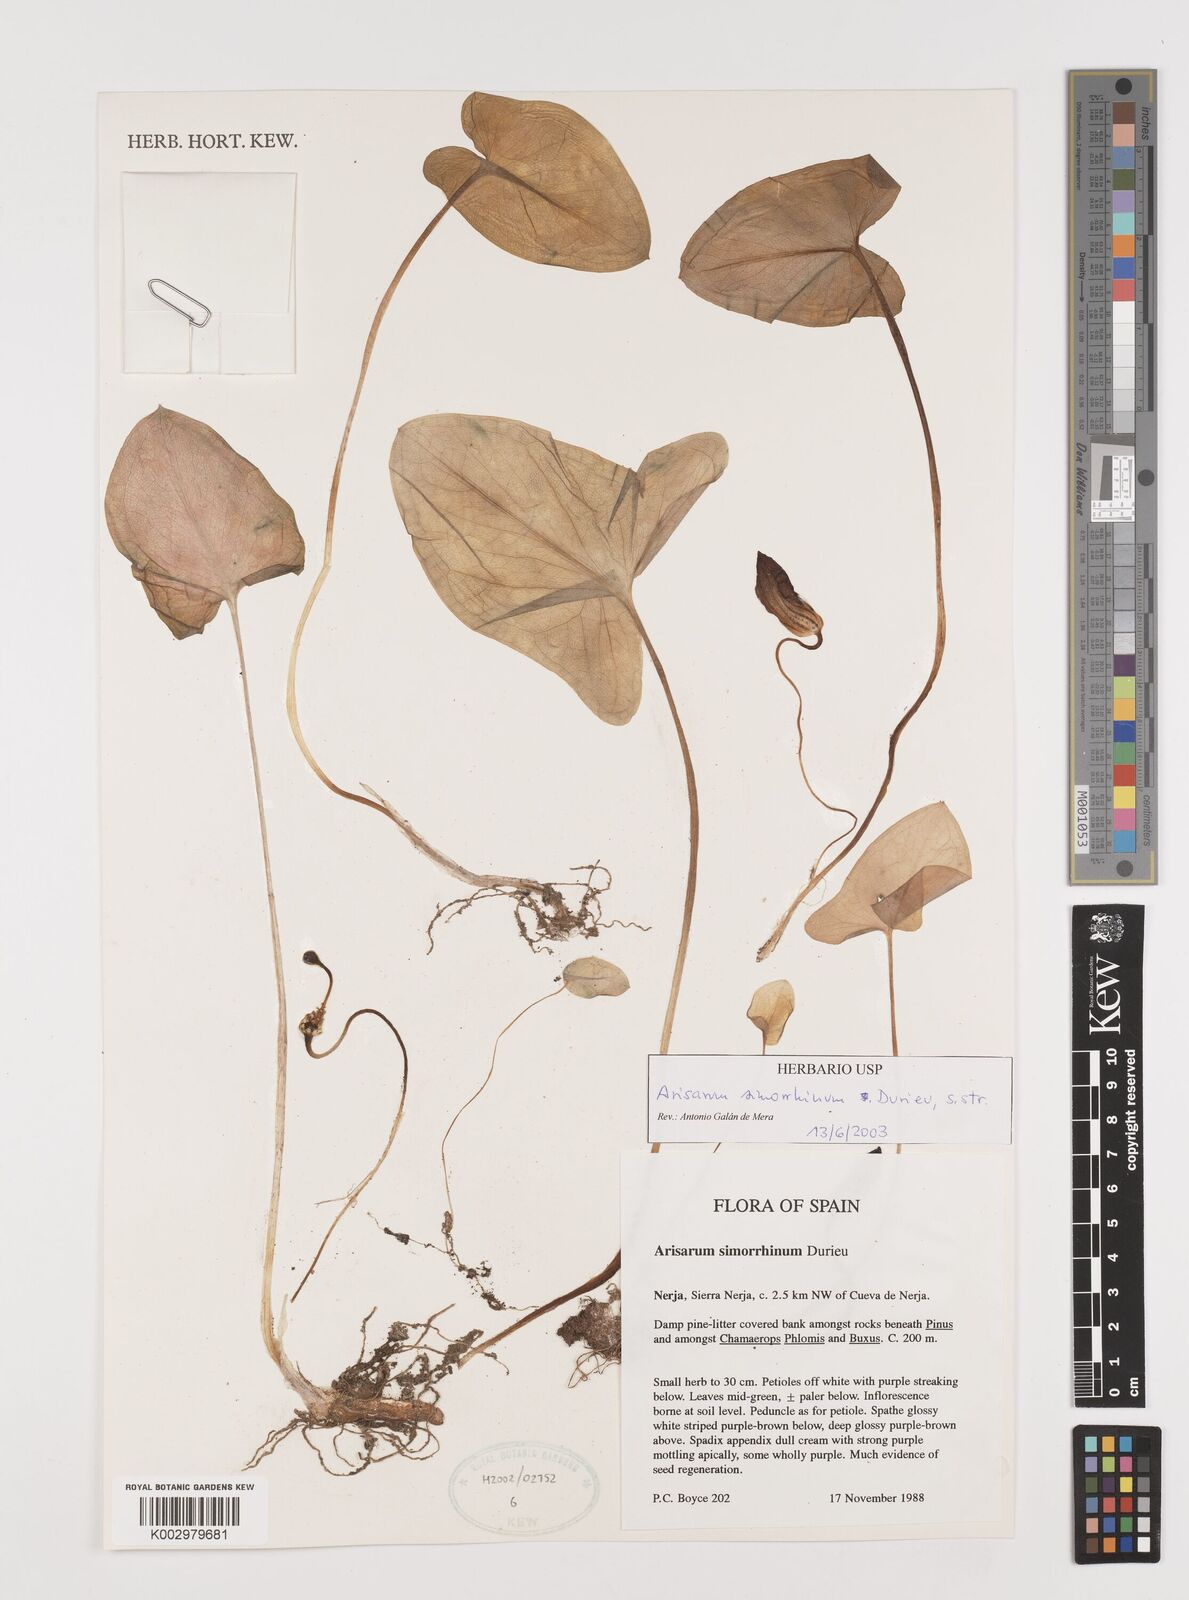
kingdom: Plantae
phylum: Tracheophyta
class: Liliopsida
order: Alismatales
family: Araceae
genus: Arisarum
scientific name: Arisarum simorrhinum
